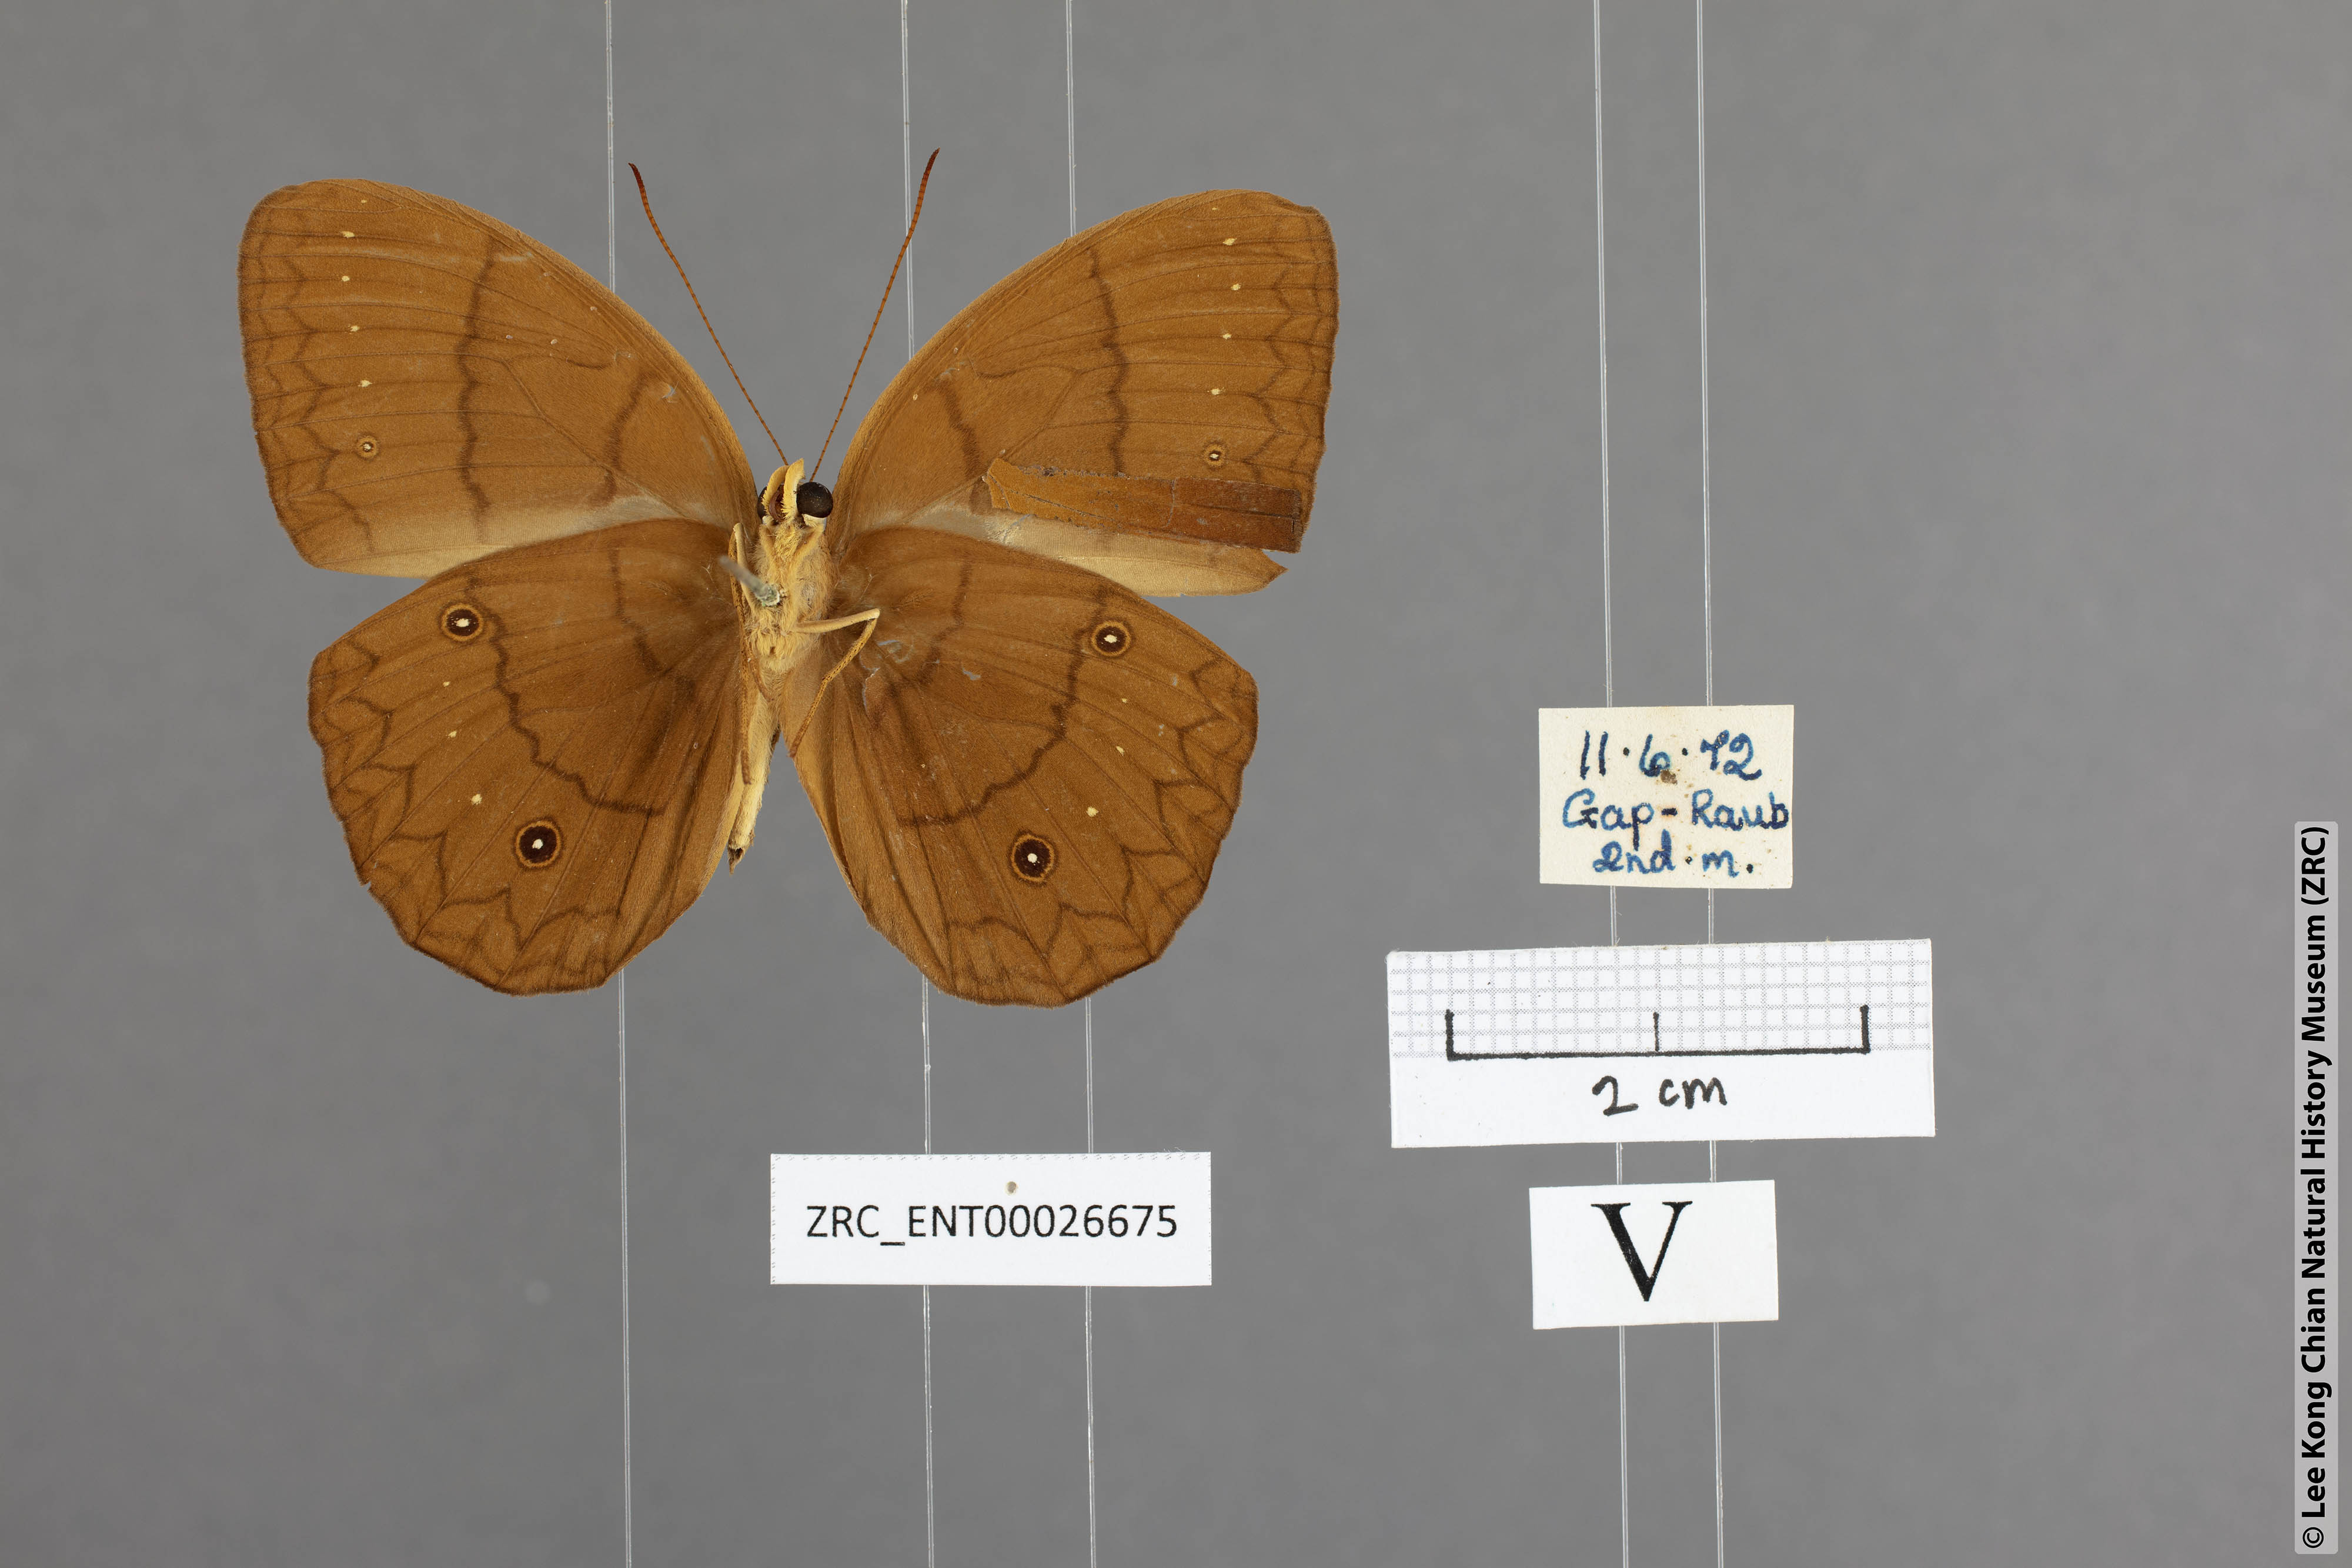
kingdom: Animalia
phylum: Arthropoda
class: Insecta
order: Lepidoptera
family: Nymphalidae
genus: Faunis
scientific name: Faunis gracilis
